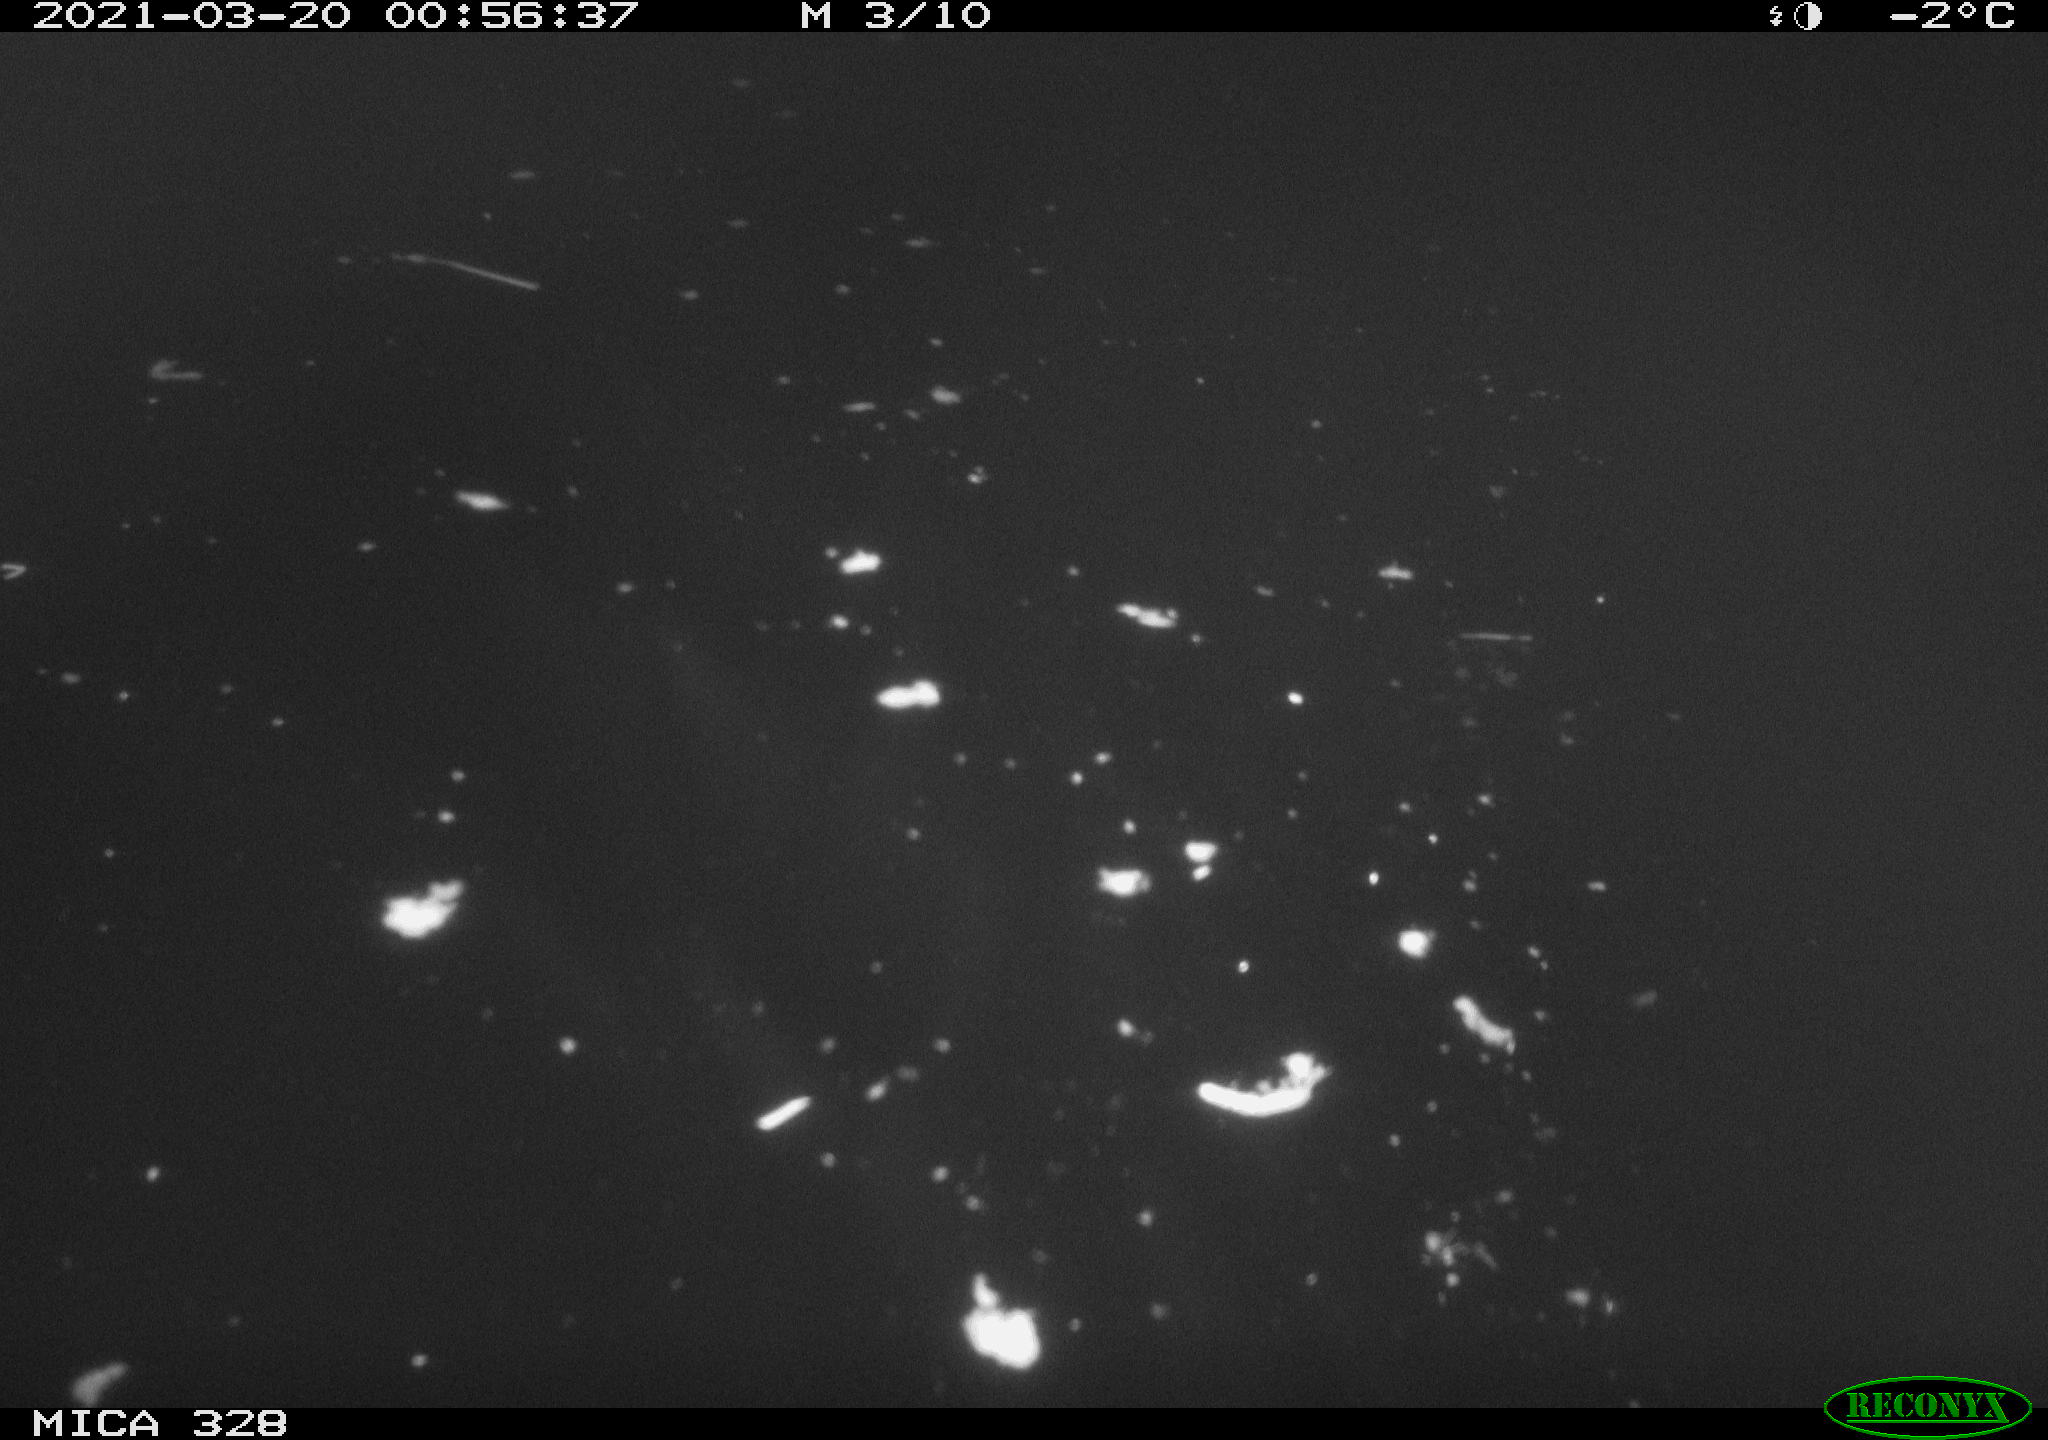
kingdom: Animalia
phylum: Chordata
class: Mammalia
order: Rodentia
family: Cricetidae
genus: Ondatra
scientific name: Ondatra zibethicus
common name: Muskrat
